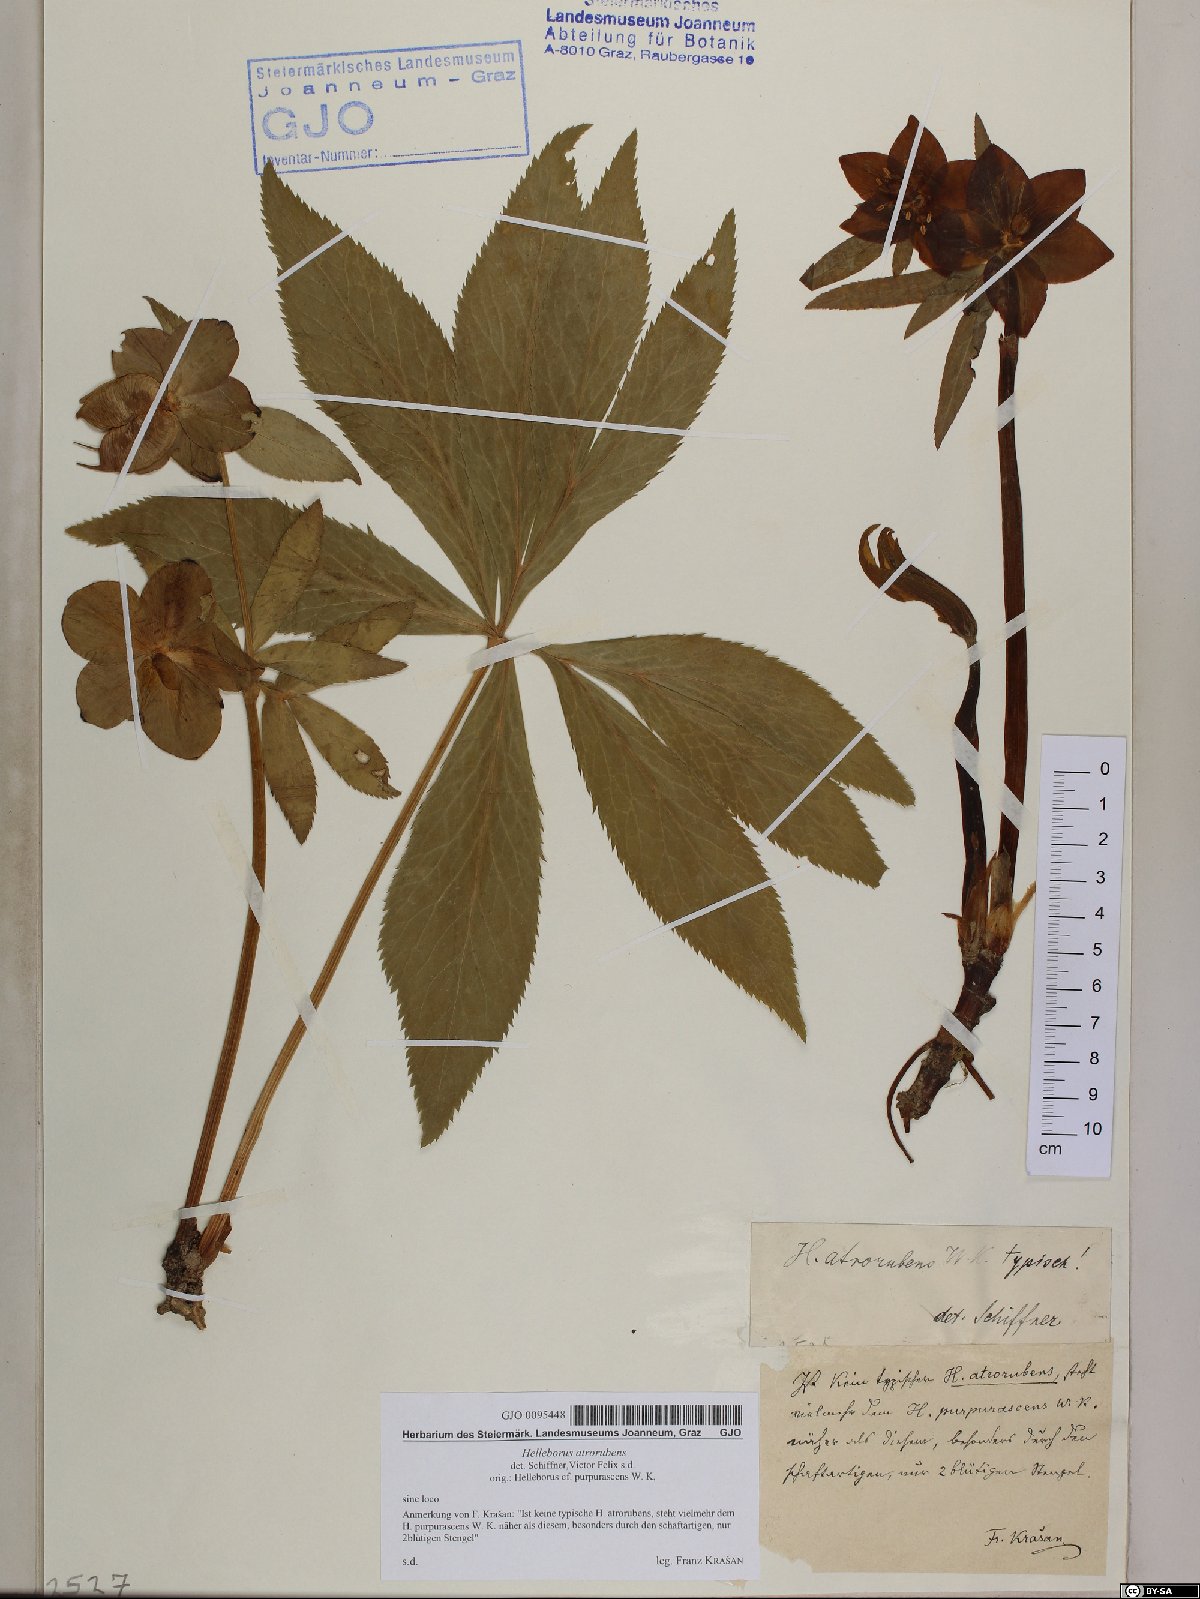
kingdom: Plantae
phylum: Tracheophyta
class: Magnoliopsida
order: Ranunculales
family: Ranunculaceae
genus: Helleborus
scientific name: Helleborus dumetorum
